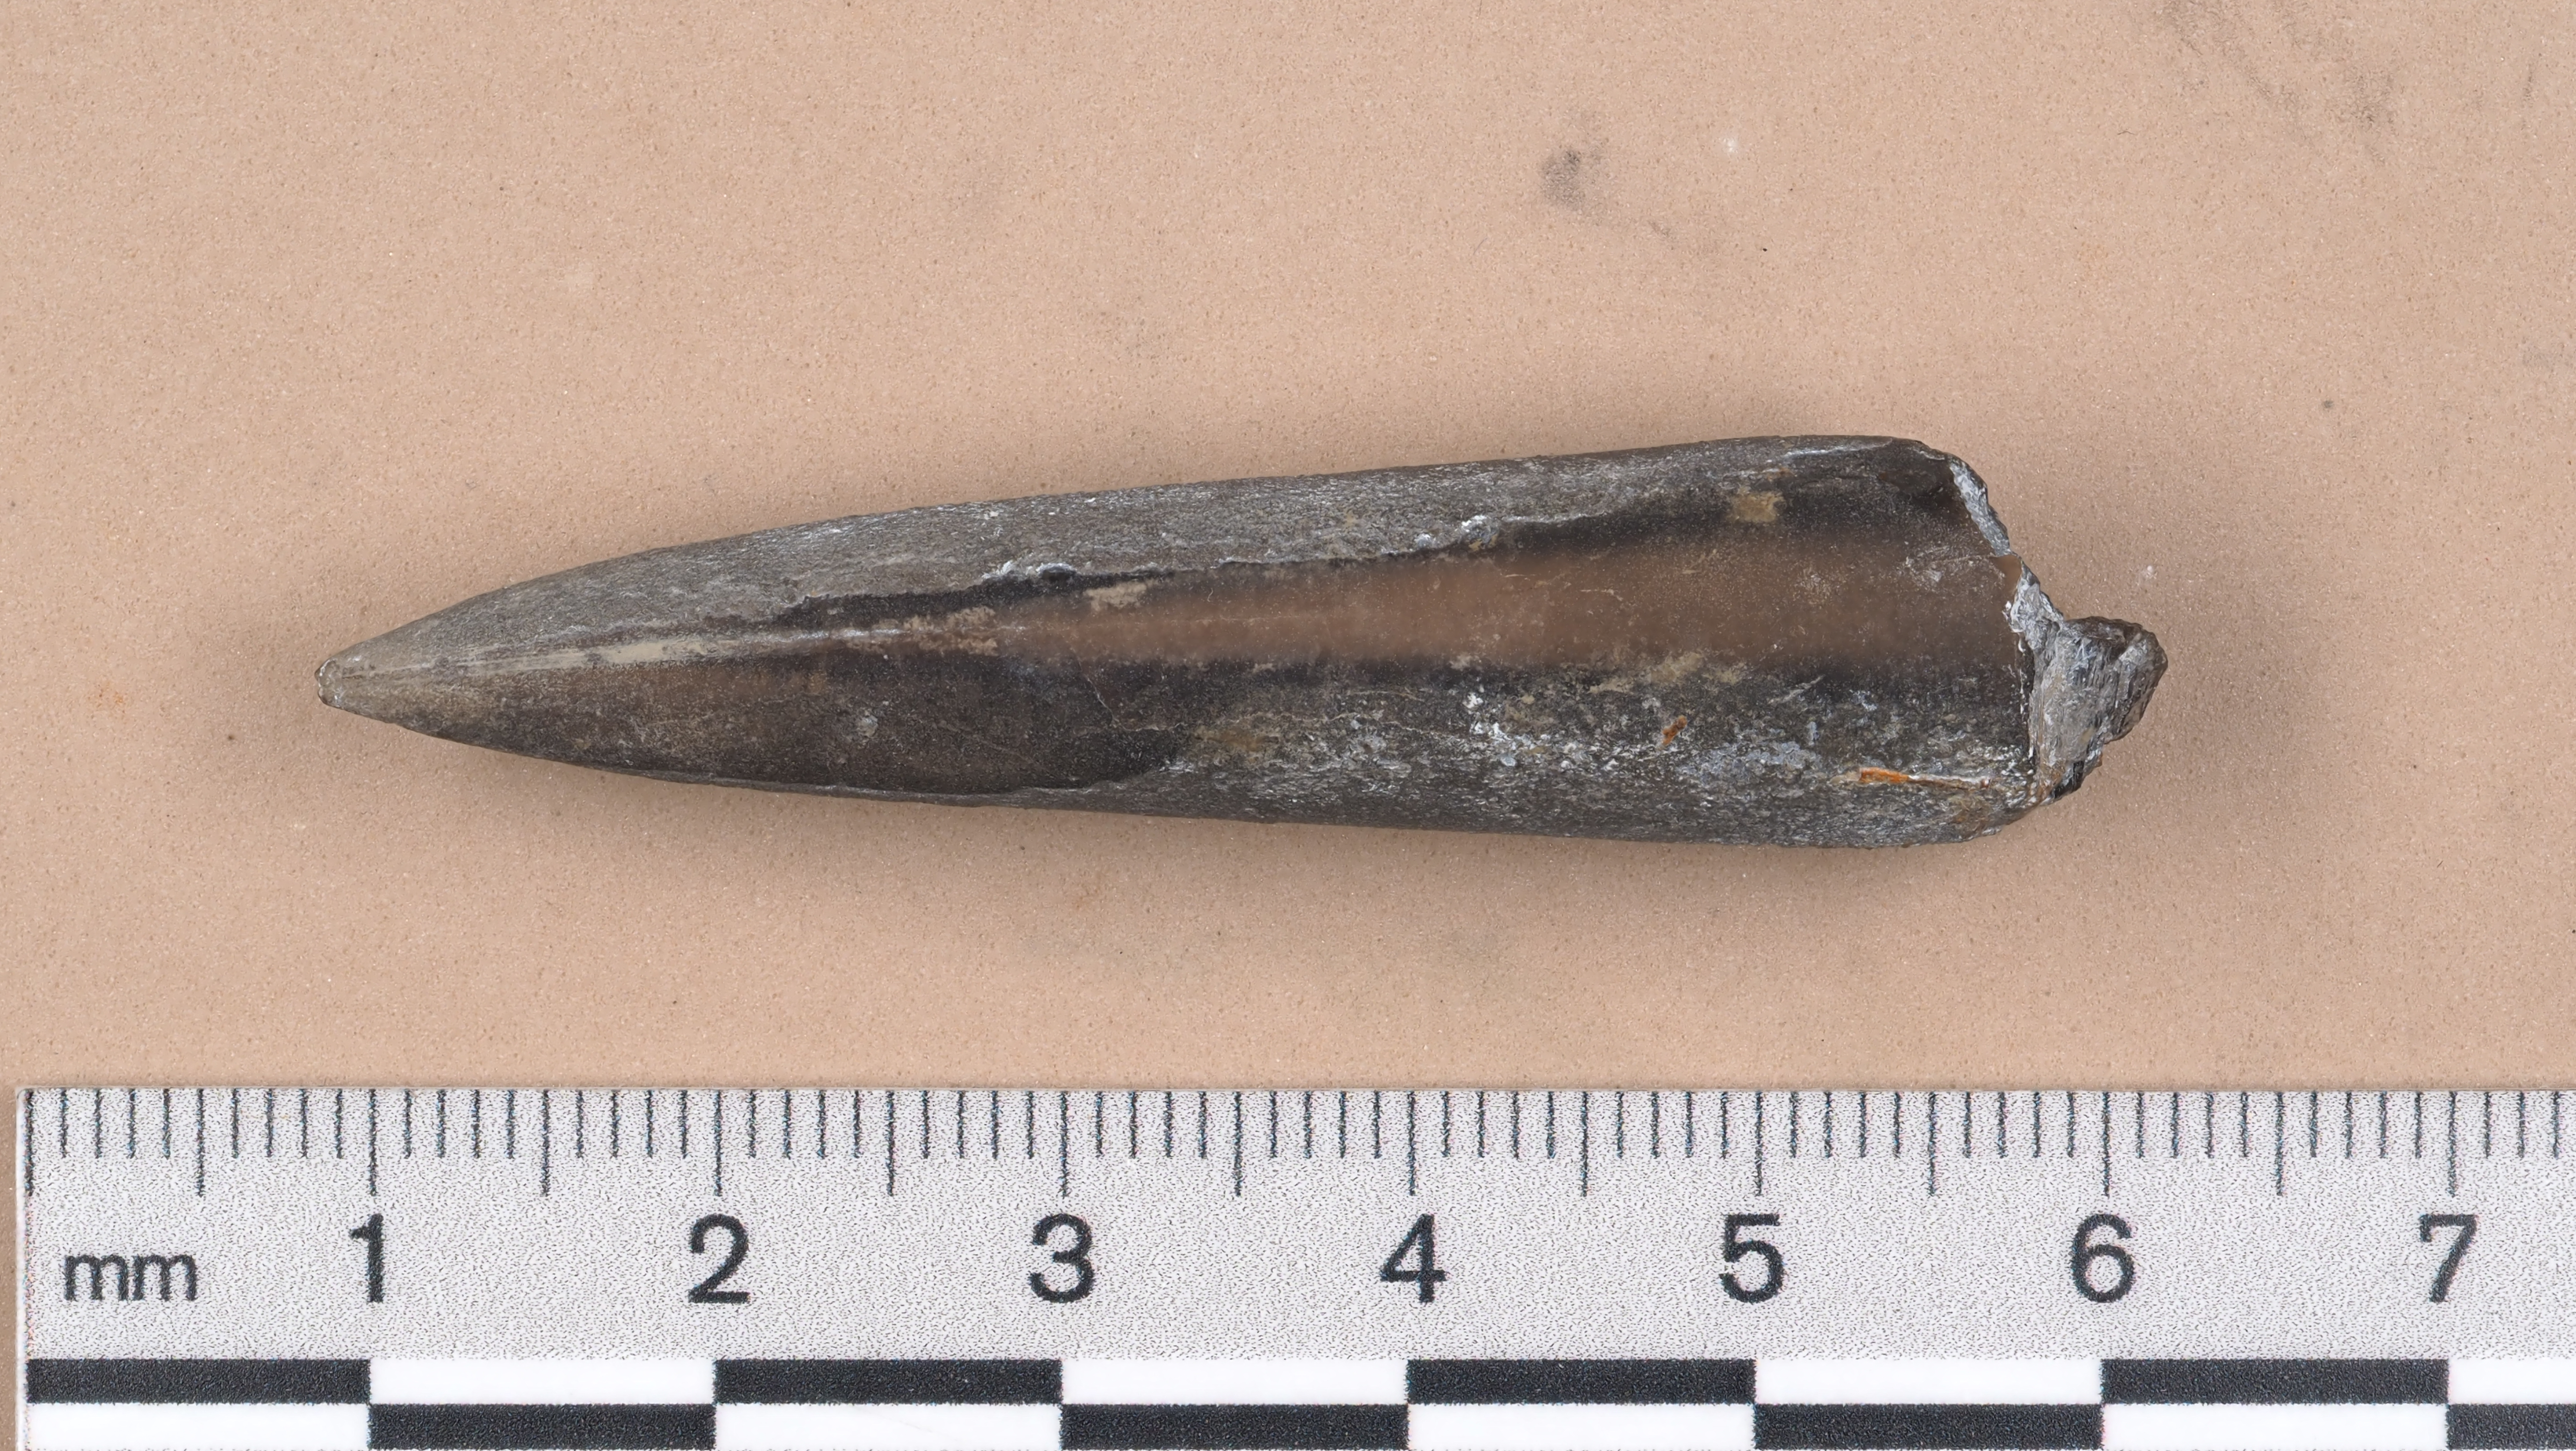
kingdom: Animalia
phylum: Mollusca
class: Cephalopoda
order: Belemnitida
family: Megateuthididae
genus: Acrocoelites
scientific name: Acrocoelites tripartitus
